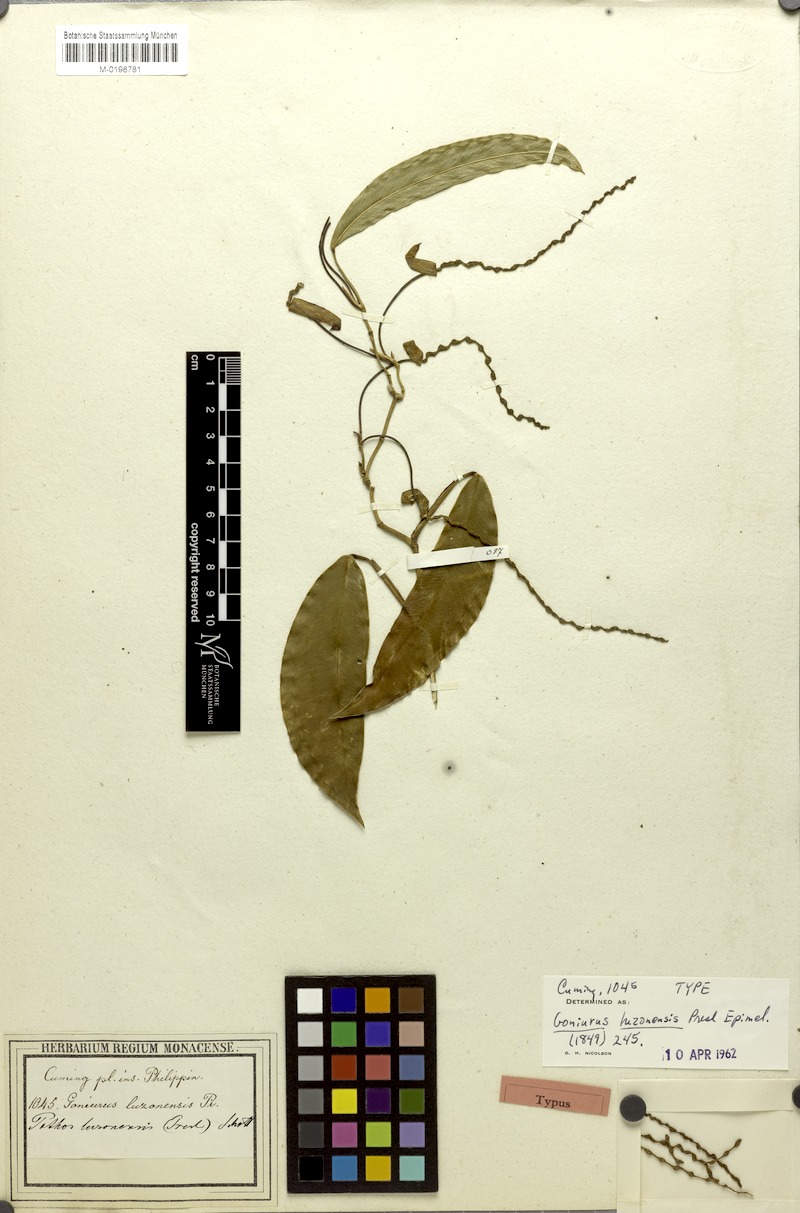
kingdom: Plantae
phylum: Tracheophyta
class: Liliopsida
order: Alismatales
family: Araceae
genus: Pothos
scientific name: Pothos luzonensis
